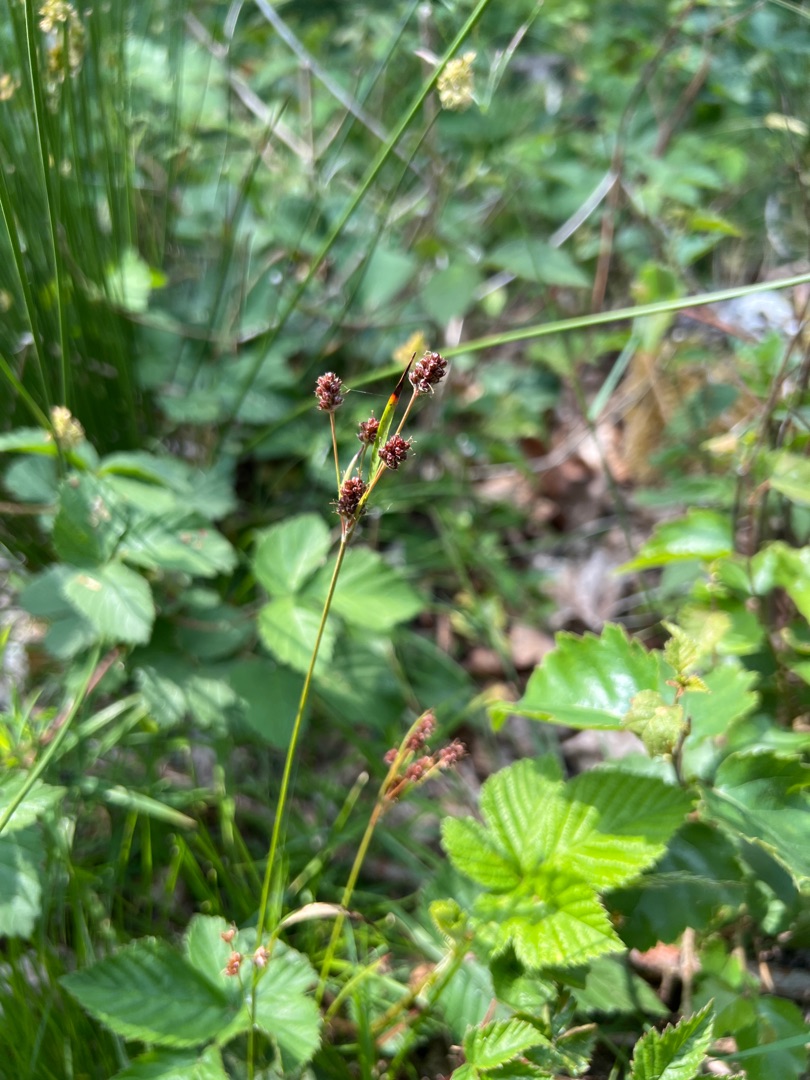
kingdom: Plantae
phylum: Tracheophyta
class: Liliopsida
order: Poales
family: Juncaceae
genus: Luzula
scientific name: Luzula multiflora
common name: Mangeblomstret frytle
